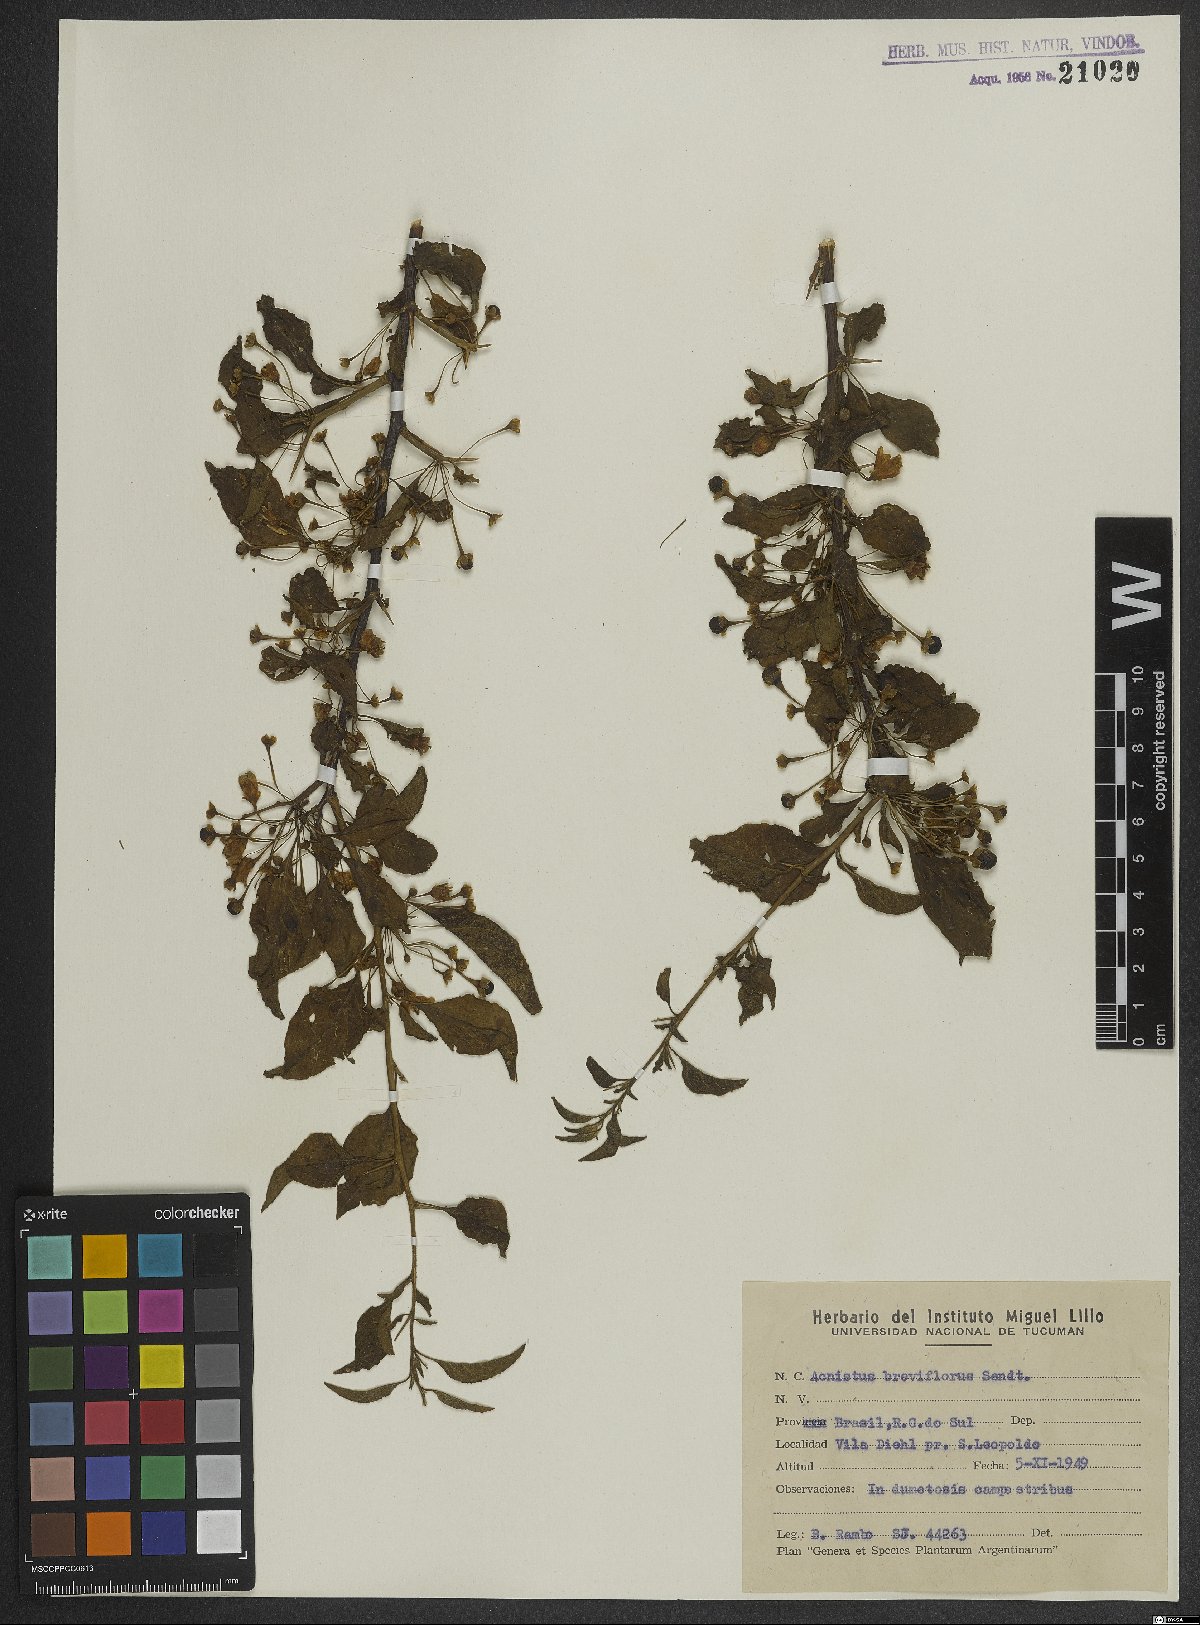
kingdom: Plantae
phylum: Tracheophyta
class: Magnoliopsida
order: Solanales
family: Solanaceae
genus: Vassobia
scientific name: Vassobia breviflora
